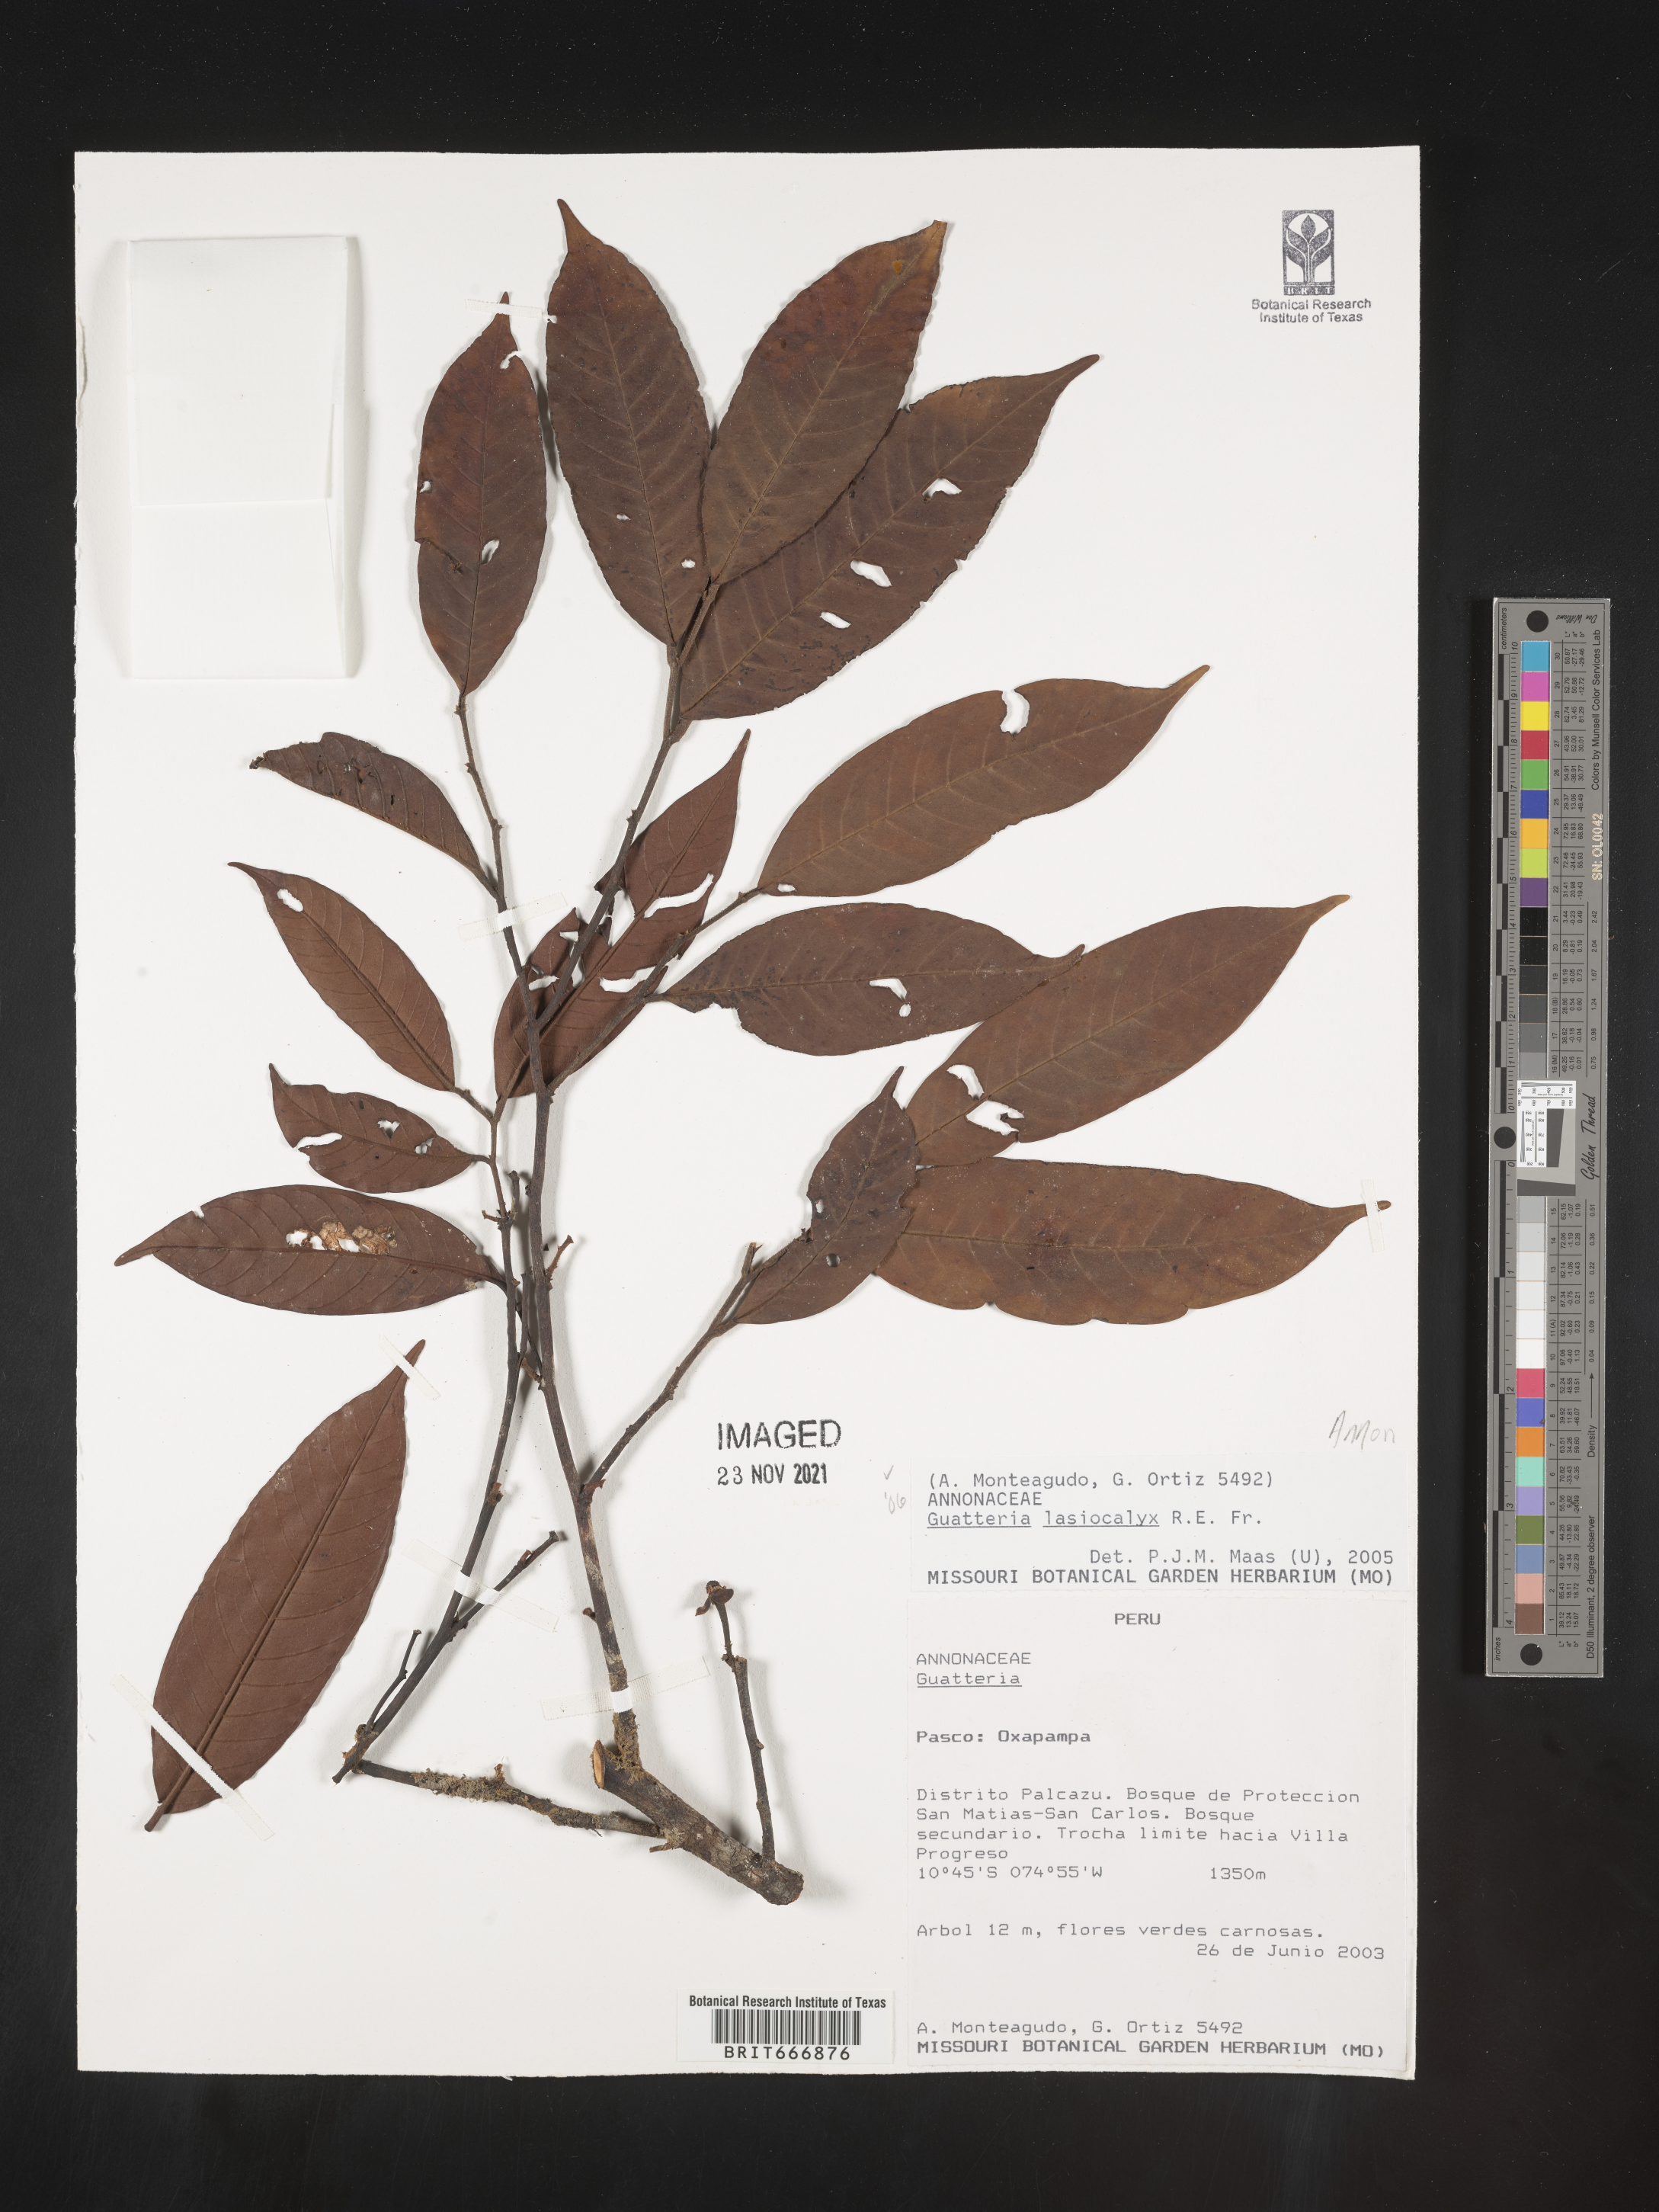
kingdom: Plantae
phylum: Tracheophyta
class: Magnoliopsida
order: Magnoliales
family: Annonaceae
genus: Guatteria
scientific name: Guatteria
